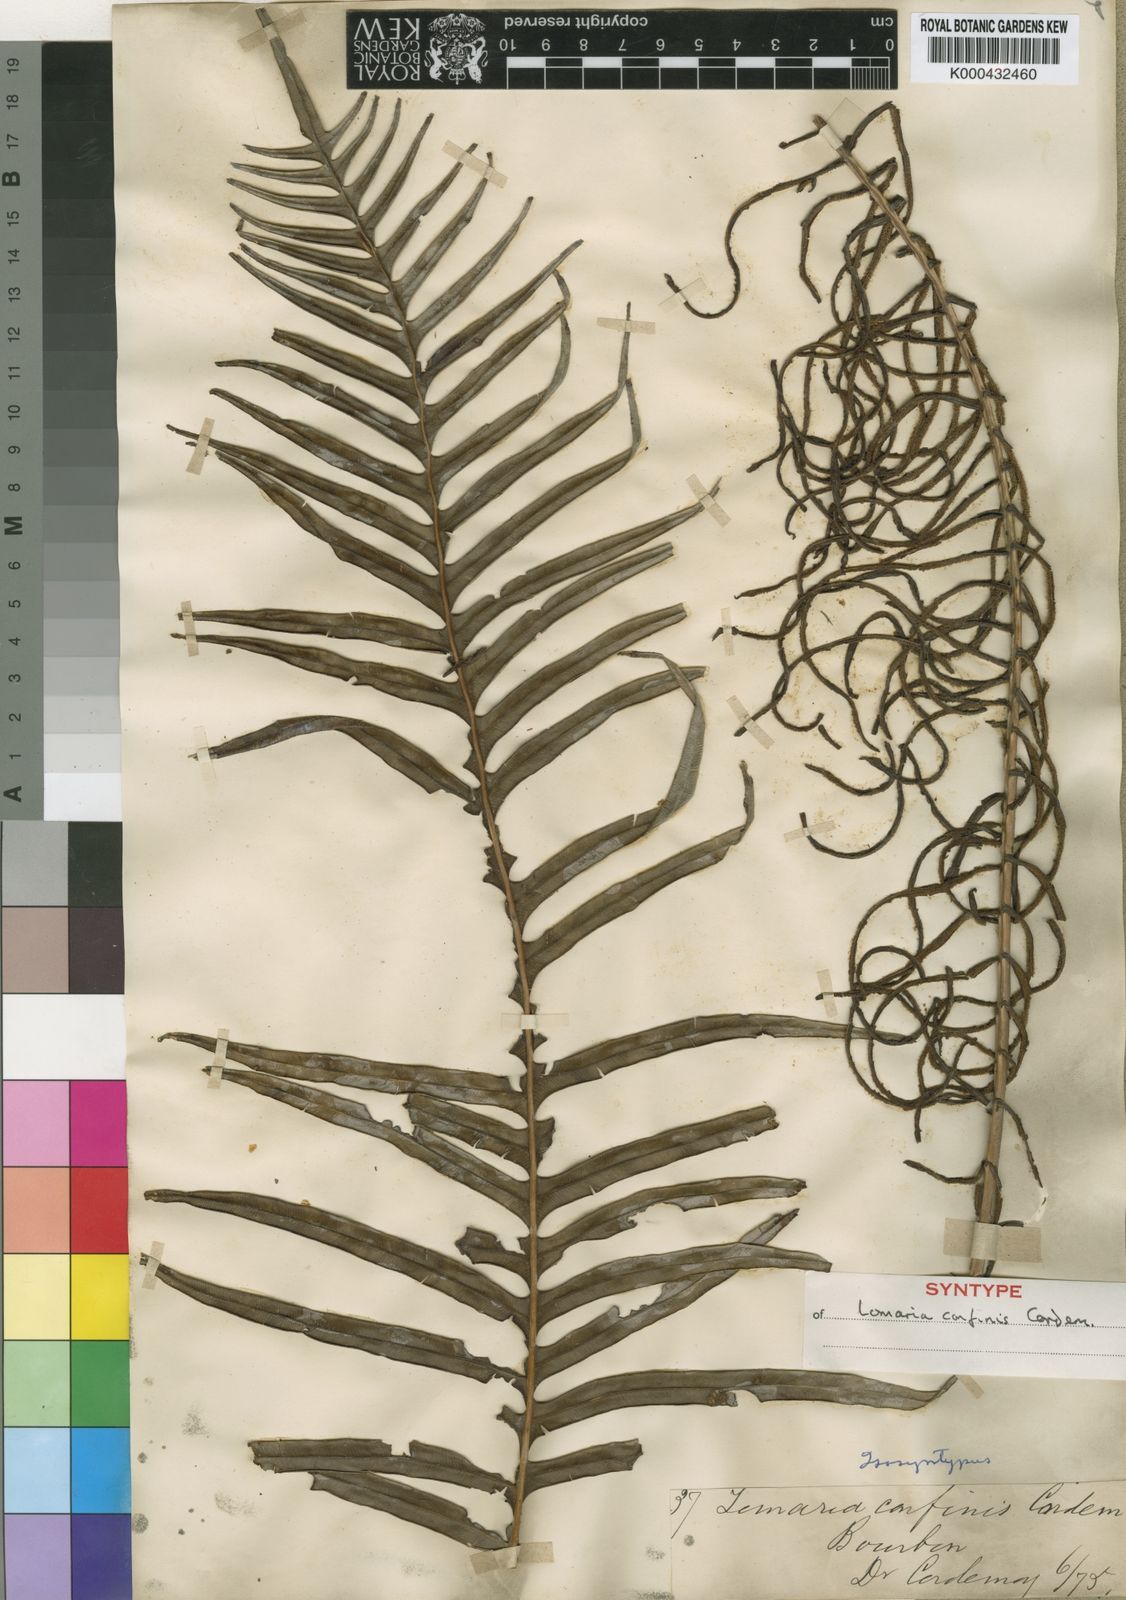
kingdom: Plantae
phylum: Tracheophyta
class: Polypodiopsida
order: Polypodiales
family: Blechnaceae
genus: Lomaridium
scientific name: Lomaridium attenuatum
